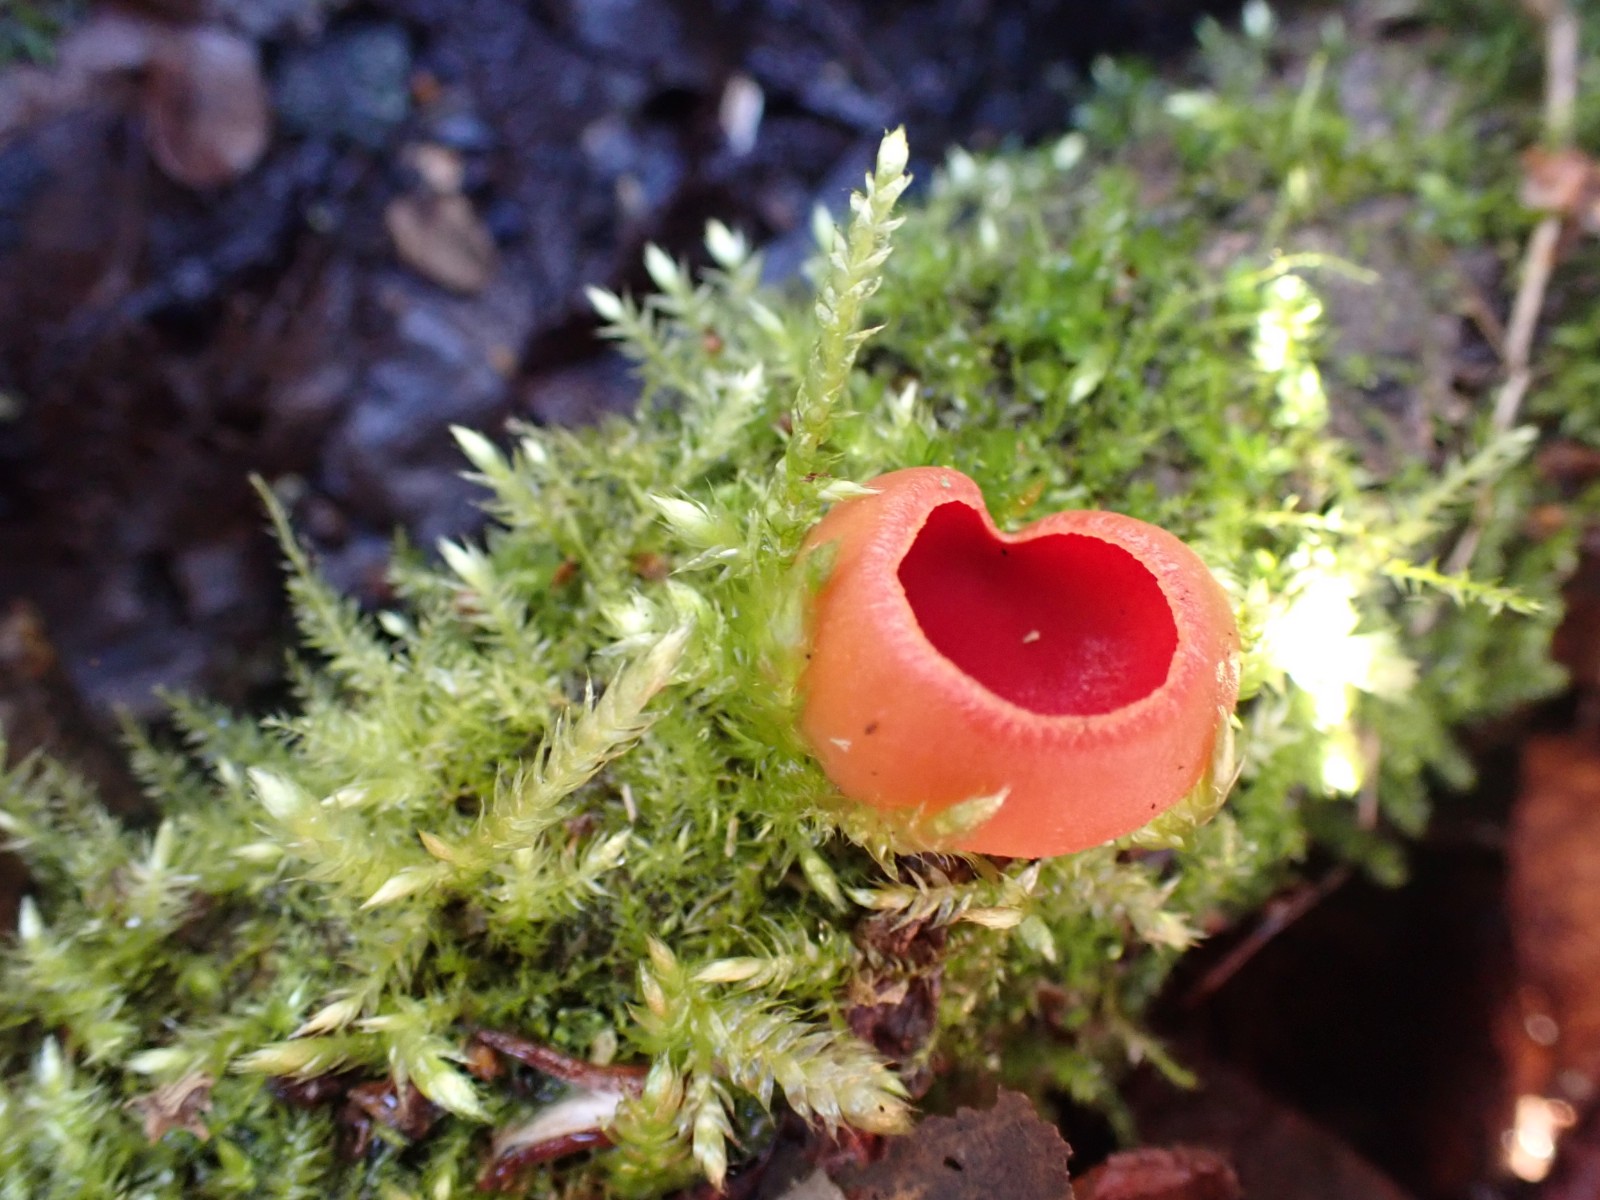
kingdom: Fungi
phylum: Ascomycota
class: Pezizomycetes
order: Pezizales
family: Sarcoscyphaceae
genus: Sarcoscypha
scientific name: Sarcoscypha austriaca
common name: krølhåret pragtbæger
